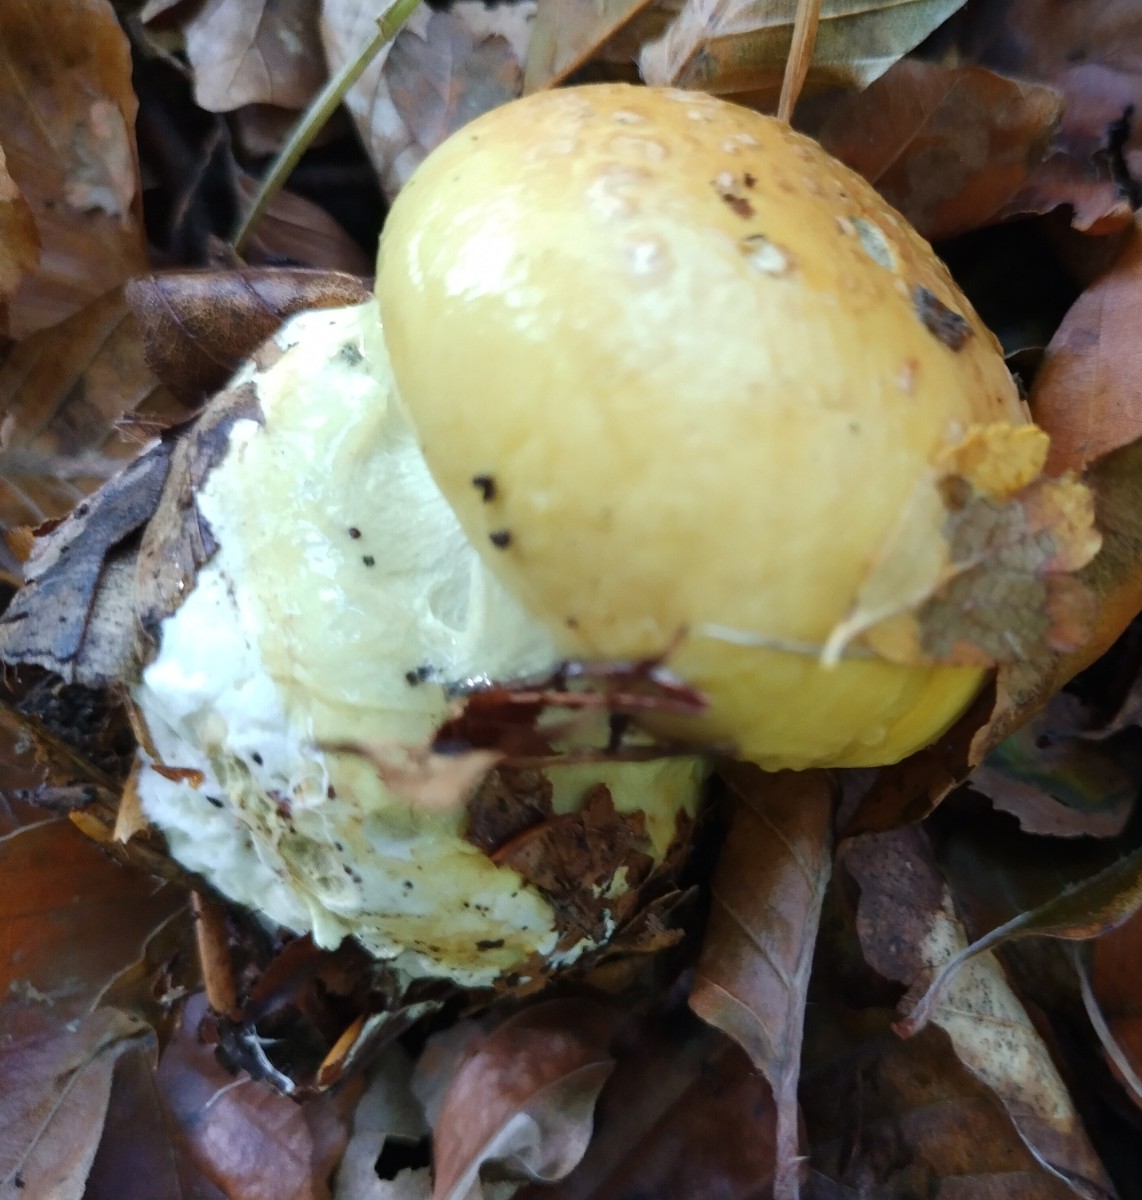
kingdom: Fungi
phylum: Basidiomycota
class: Agaricomycetes
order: Agaricales
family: Cortinariaceae
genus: Cortinarius
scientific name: Cortinarius
